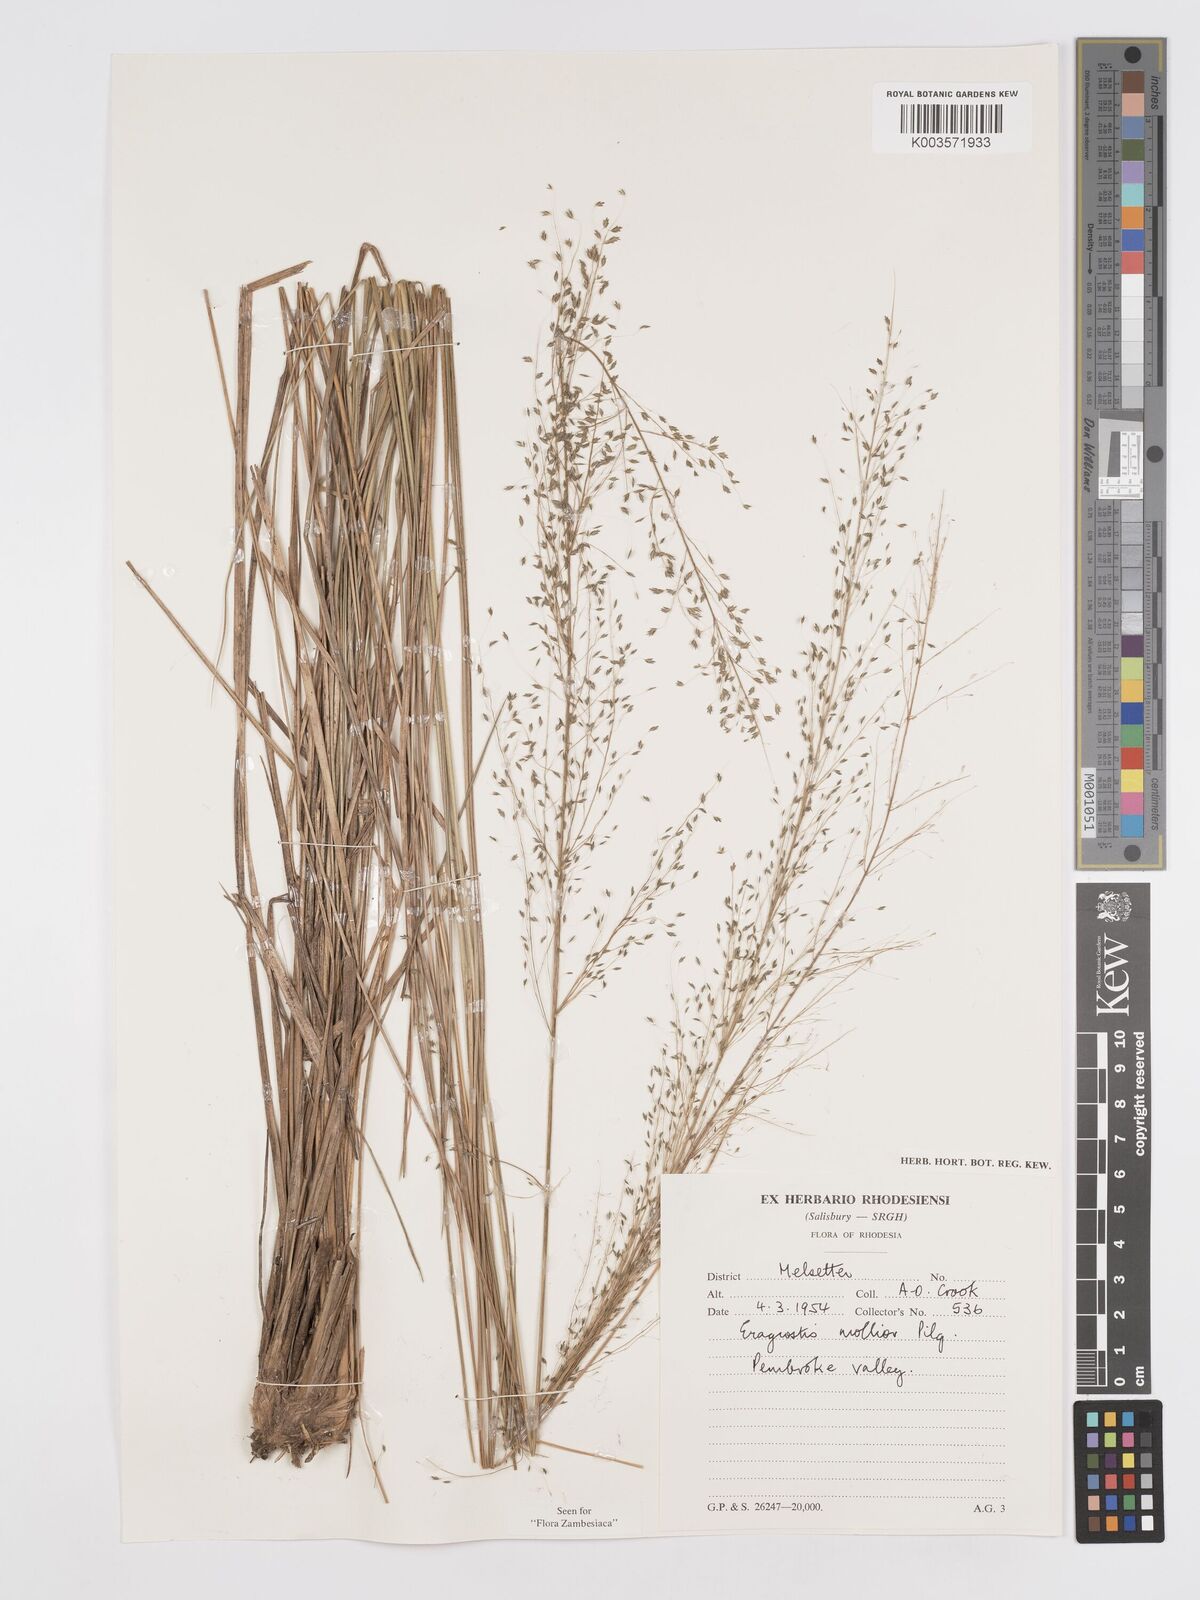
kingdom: Plantae
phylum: Tracheophyta
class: Liliopsida
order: Poales
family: Poaceae
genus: Eragrostis
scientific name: Eragrostis mollior
